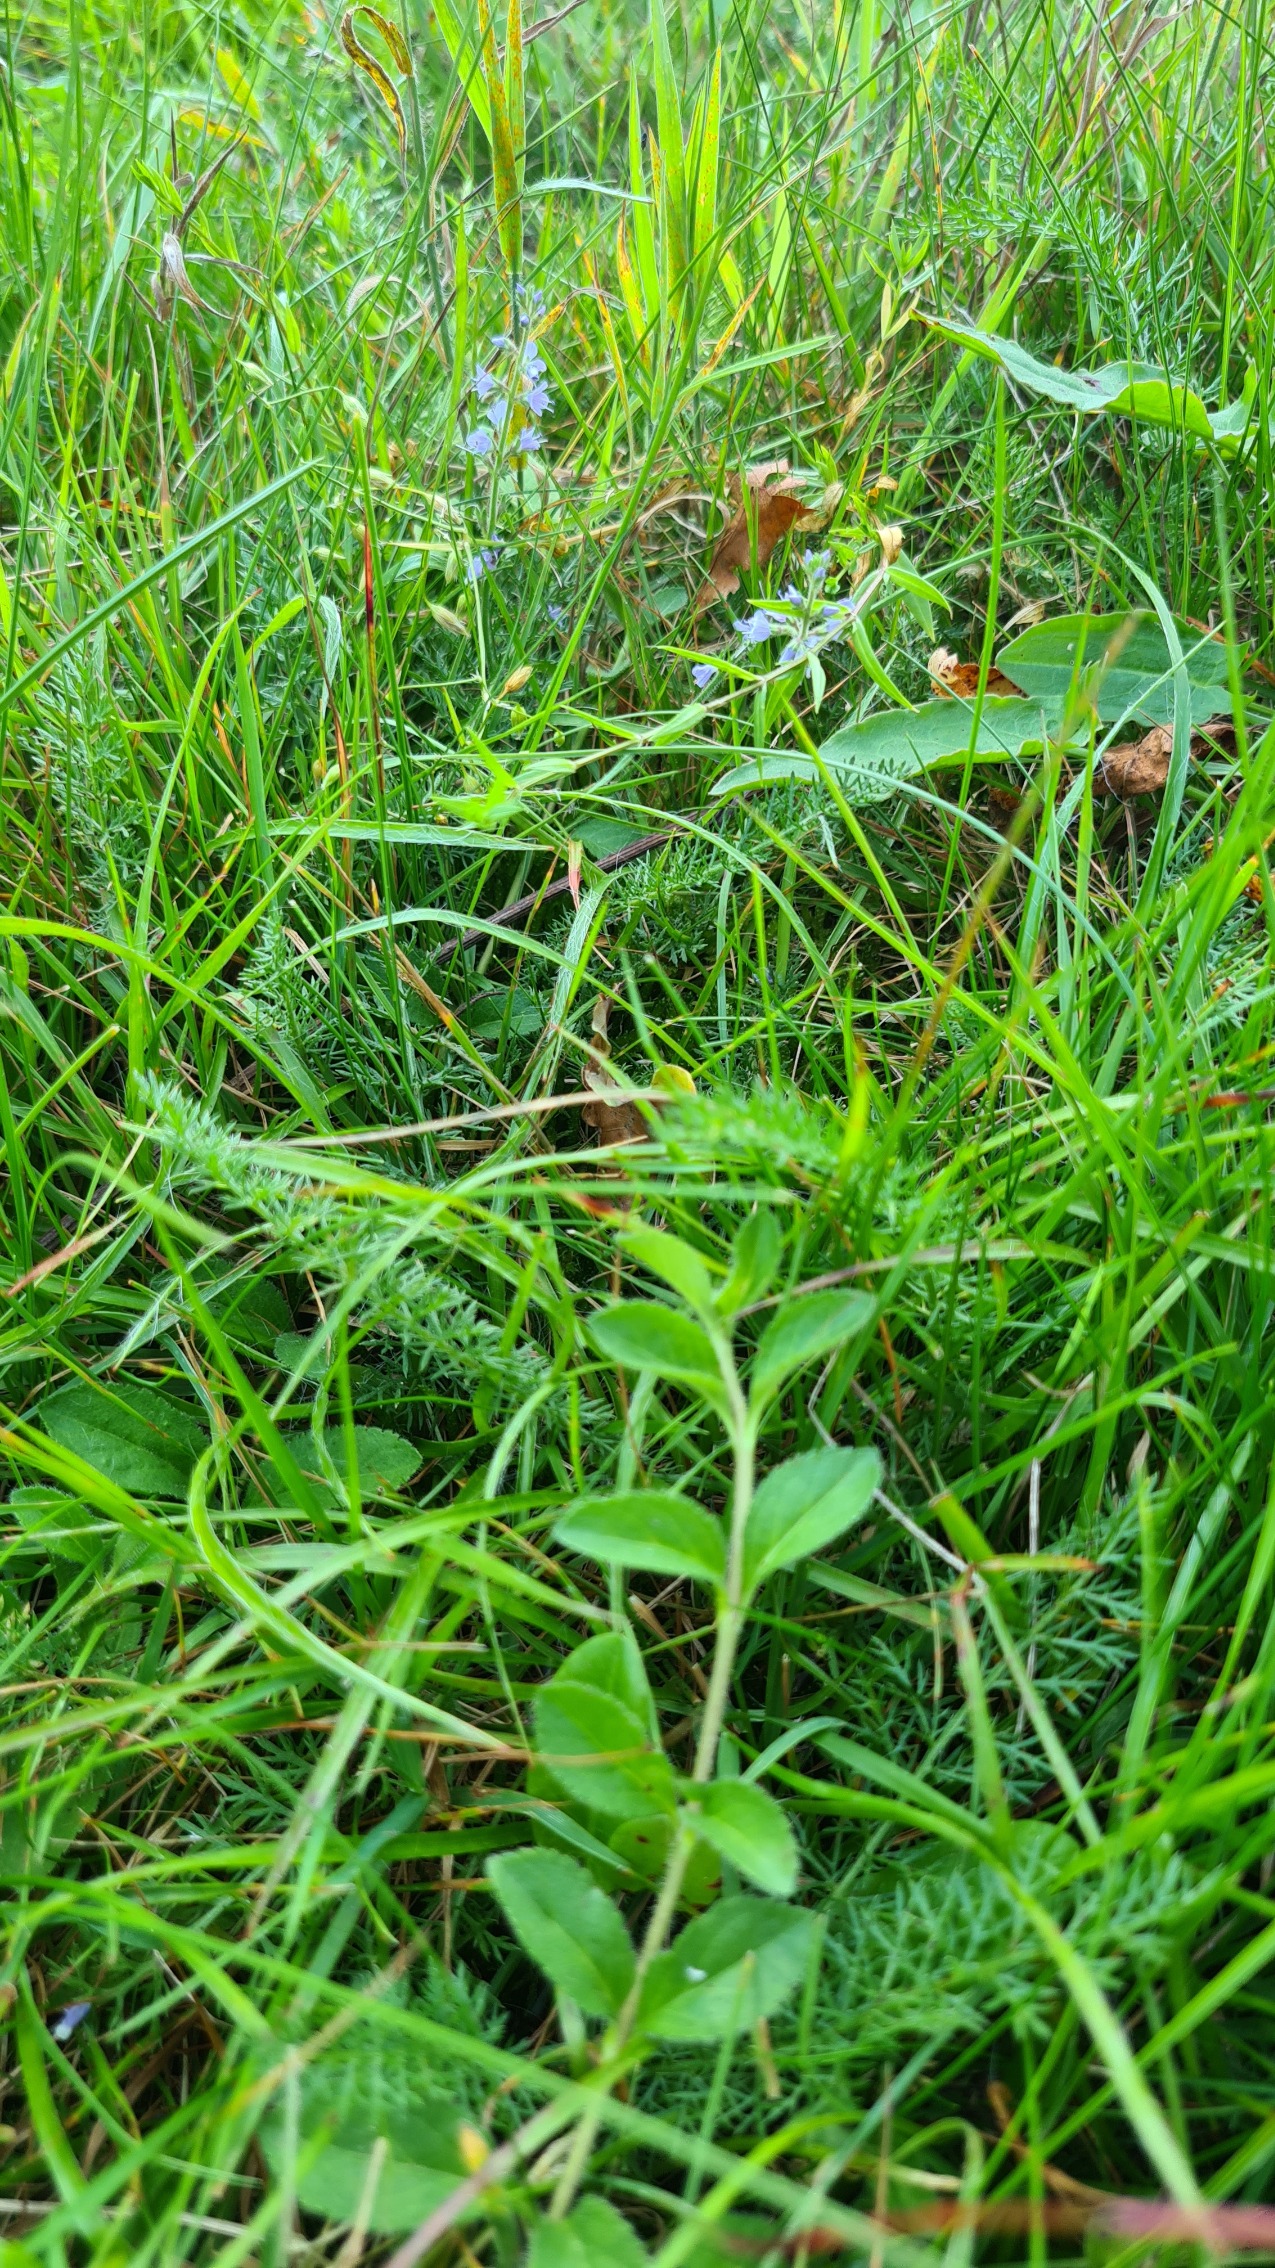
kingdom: Plantae
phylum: Tracheophyta
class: Magnoliopsida
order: Lamiales
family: Plantaginaceae
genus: Veronica
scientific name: Veronica officinalis
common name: Læge-ærenpris
